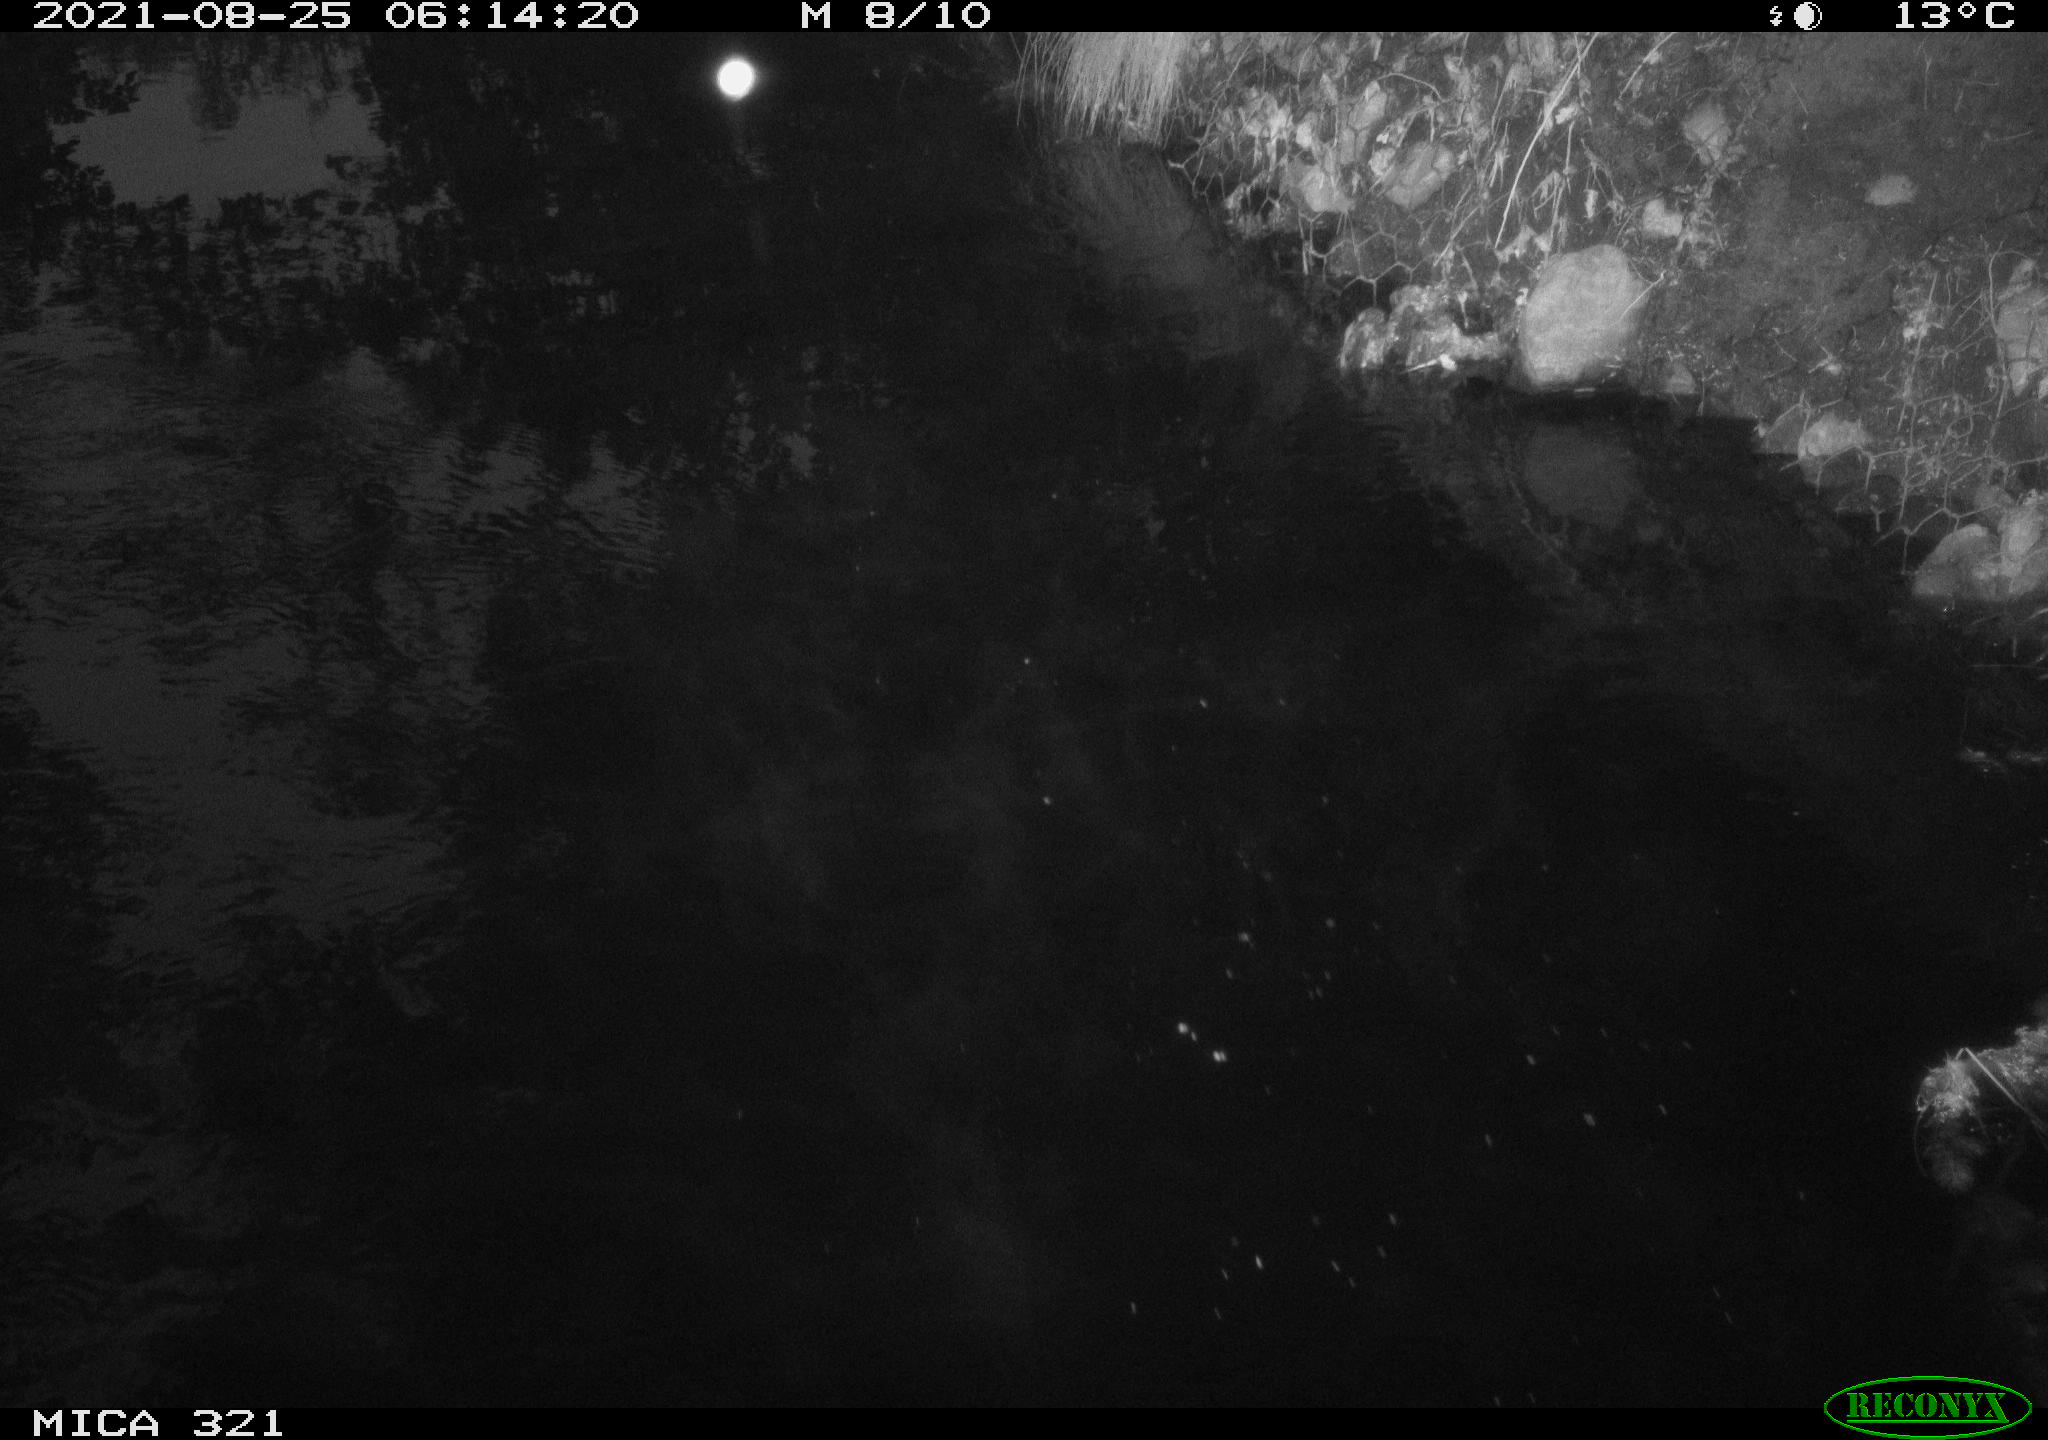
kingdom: Animalia
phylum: Chordata
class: Aves
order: Anseriformes
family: Anatidae
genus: Anas
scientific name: Anas platyrhynchos
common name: Mallard
